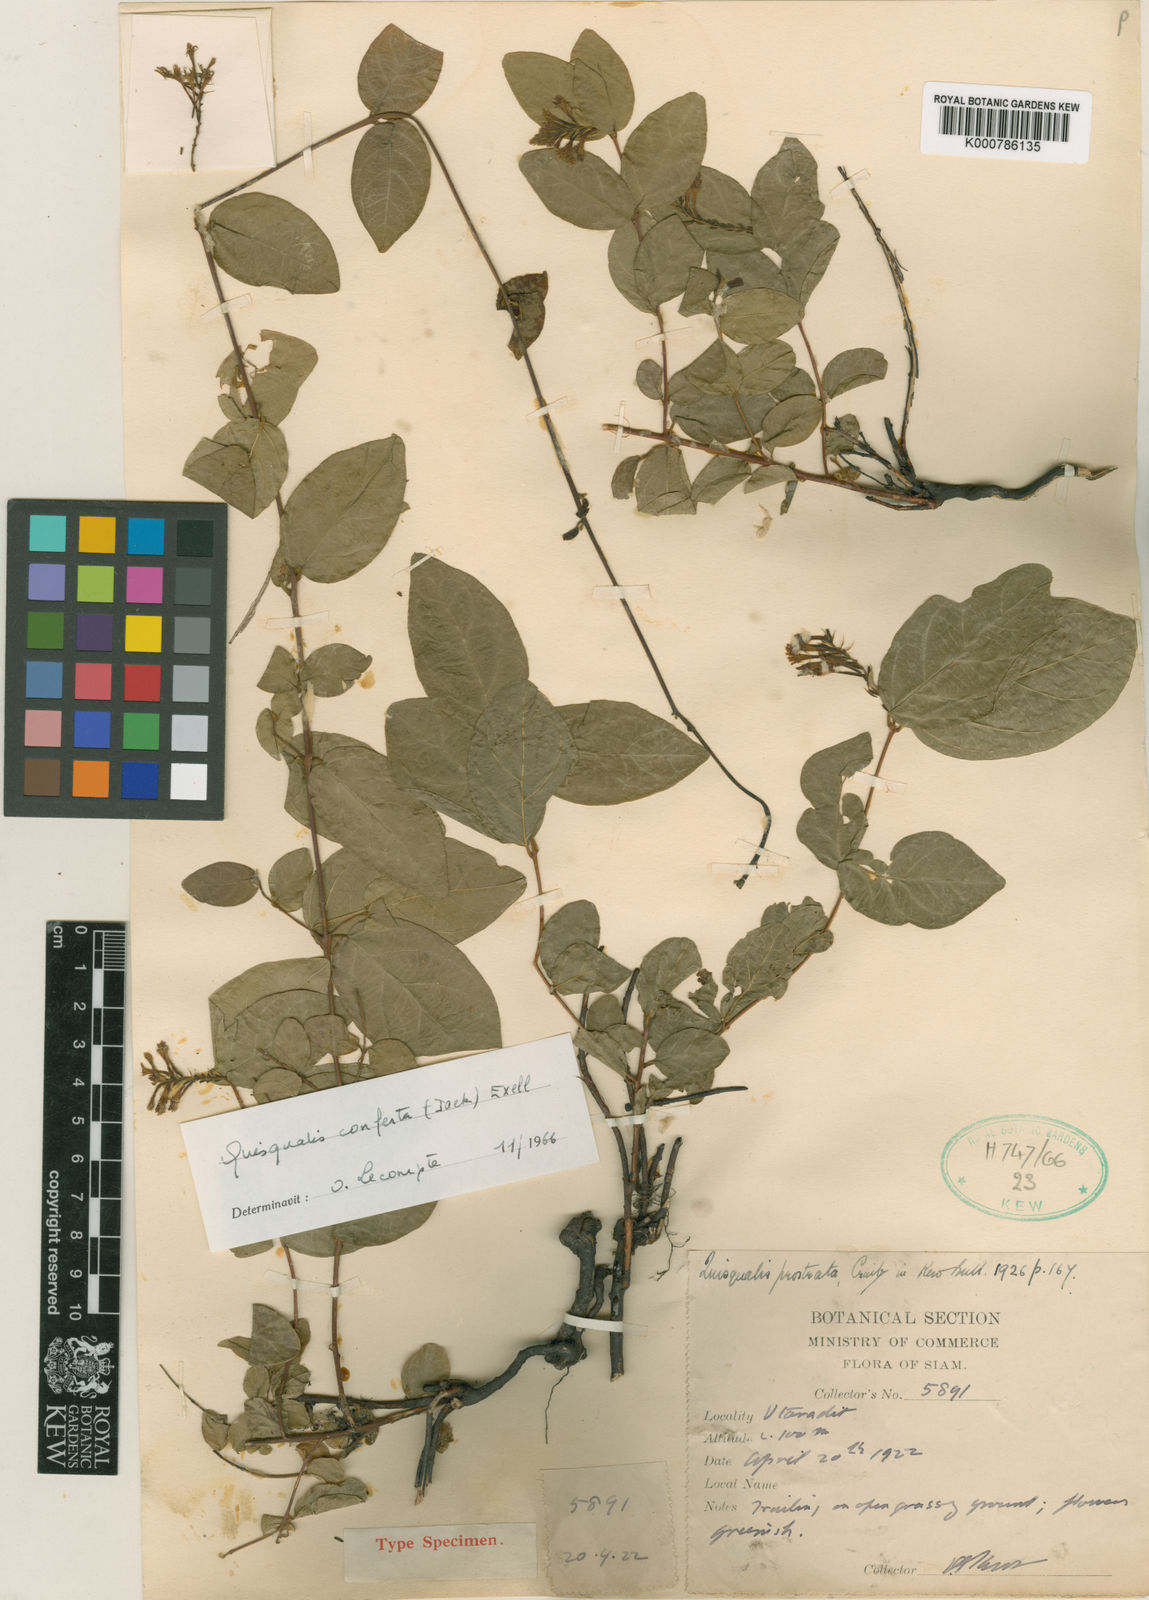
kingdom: Plantae
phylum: Tracheophyta
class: Magnoliopsida
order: Myrtales
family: Combretaceae
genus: Combretum
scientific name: Combretum prostratum
